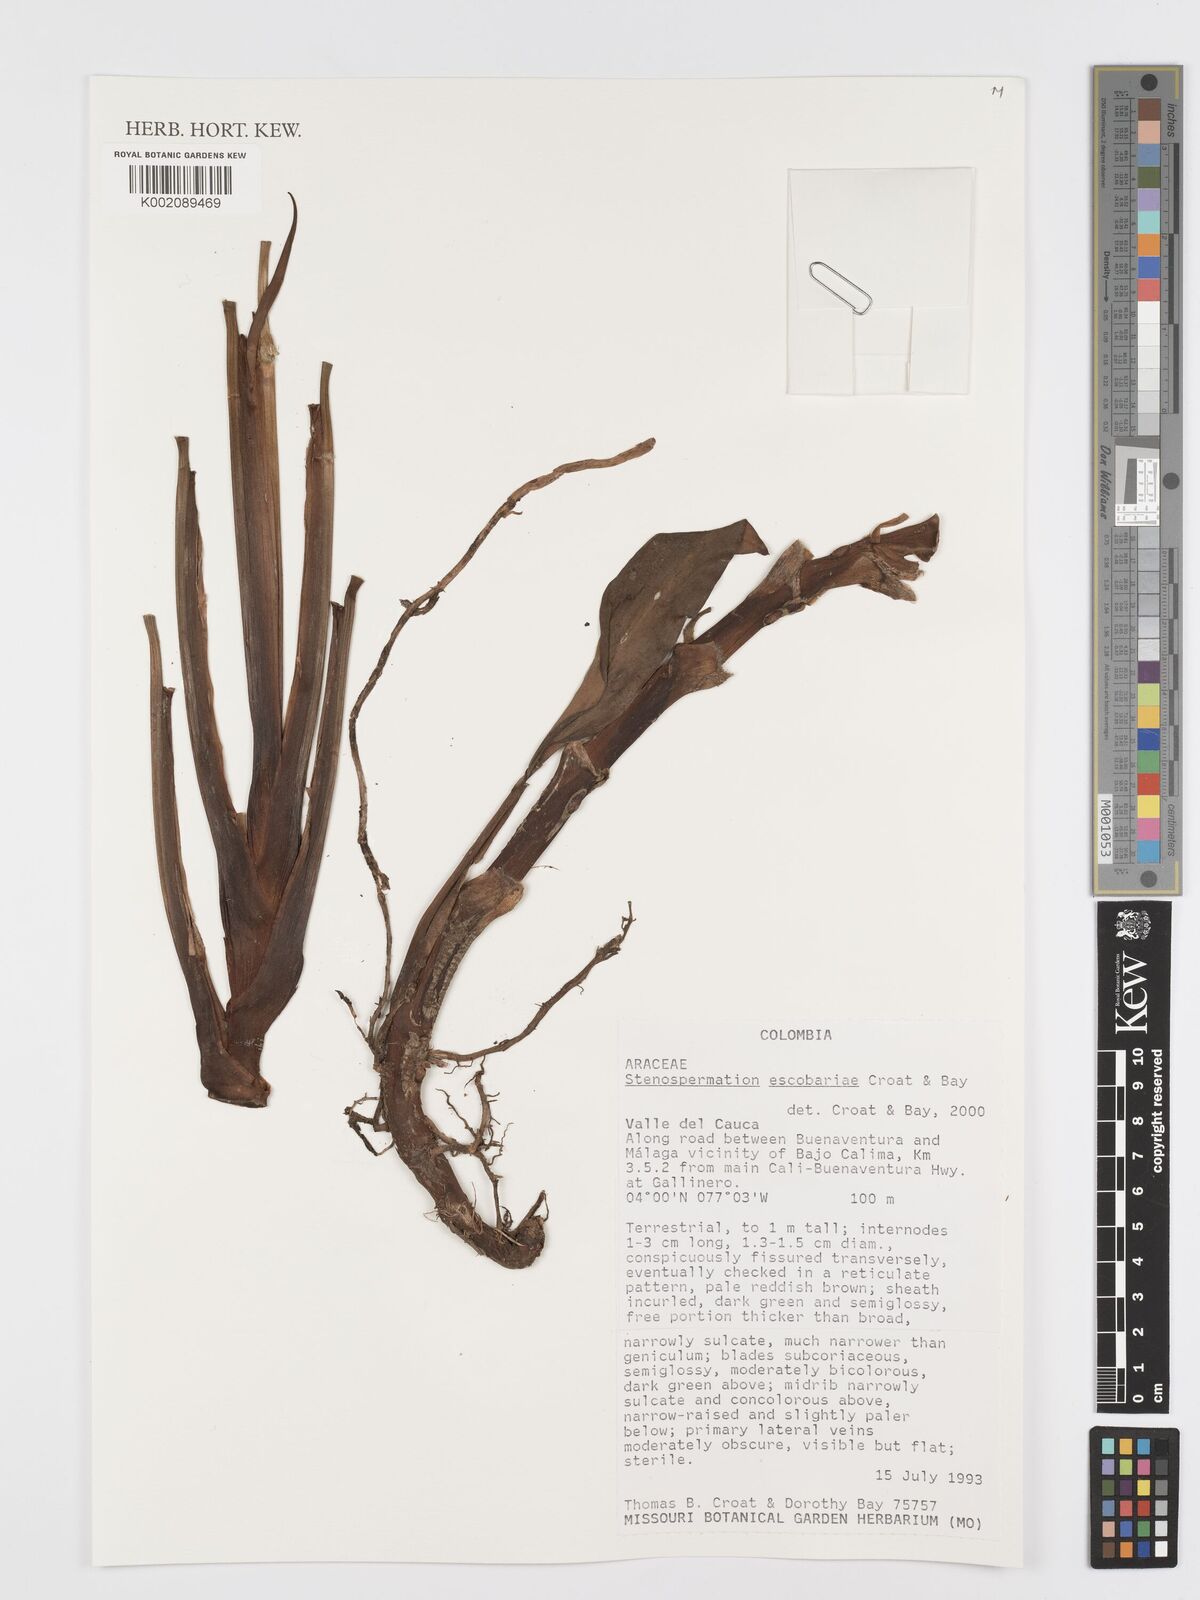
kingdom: Plantae
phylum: Tracheophyta
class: Liliopsida
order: Alismatales
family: Araceae
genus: Stenospermation
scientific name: Stenospermation escobariae
